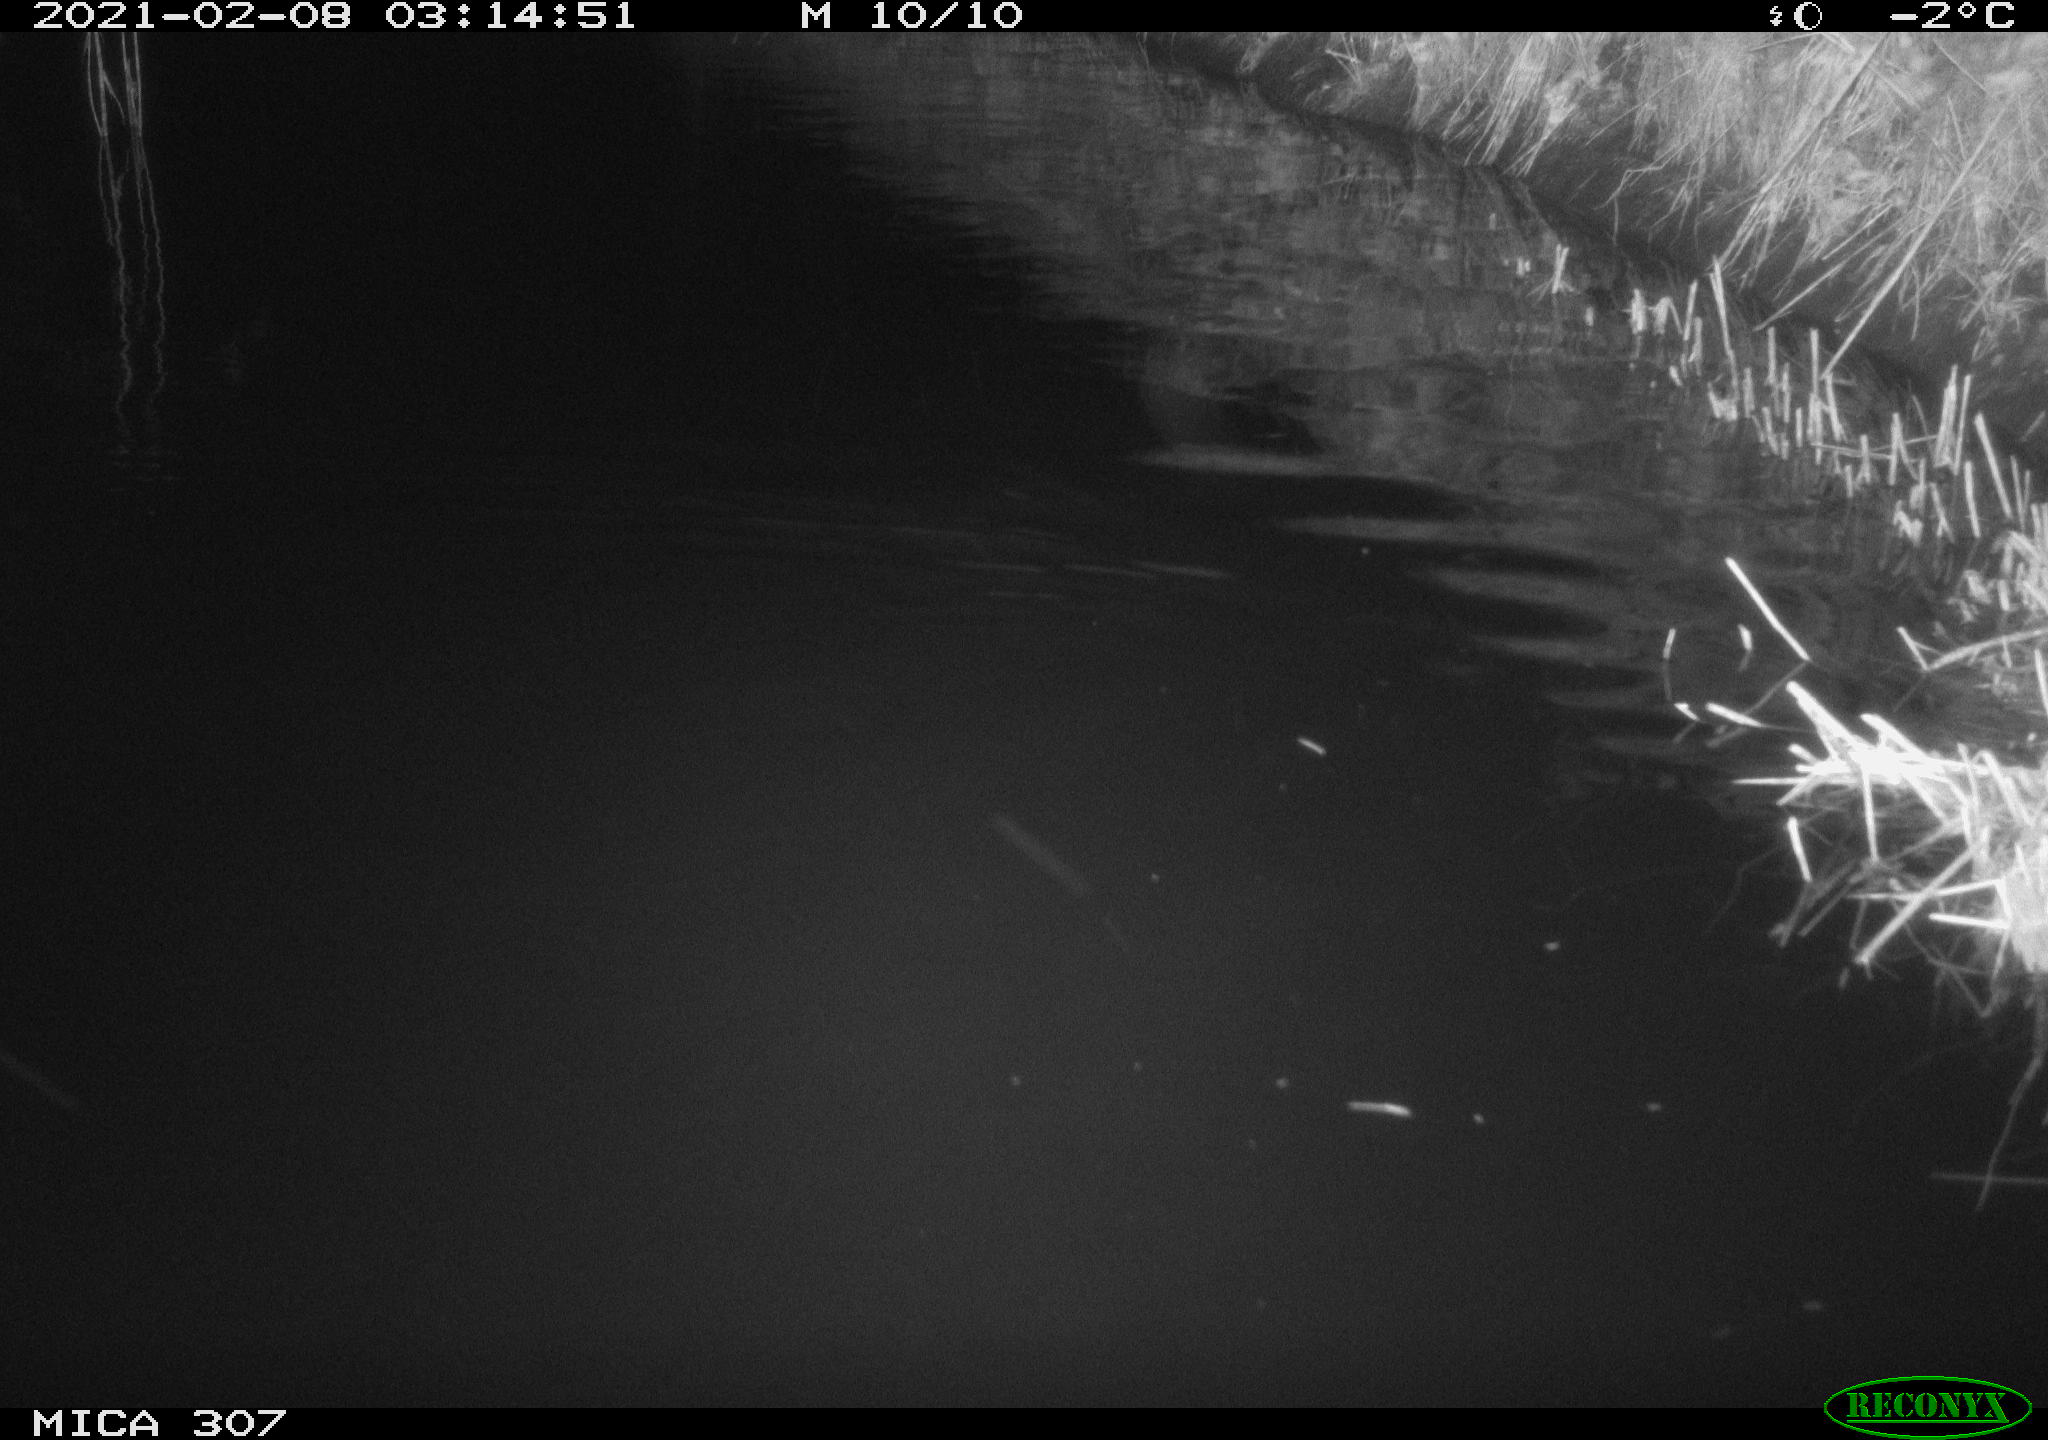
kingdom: Animalia
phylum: Chordata
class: Aves
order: Anseriformes
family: Anatidae
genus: Anas
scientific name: Anas platyrhynchos
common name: Mallard
